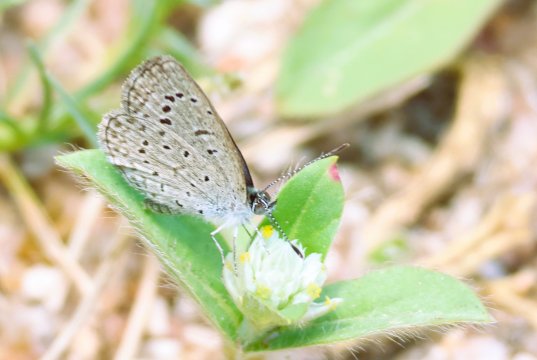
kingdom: Animalia
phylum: Arthropoda
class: Insecta
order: Lepidoptera
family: Lycaenidae
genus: Zizeeria
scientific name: Zizeeria karsandra
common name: Dark Grass Blue
